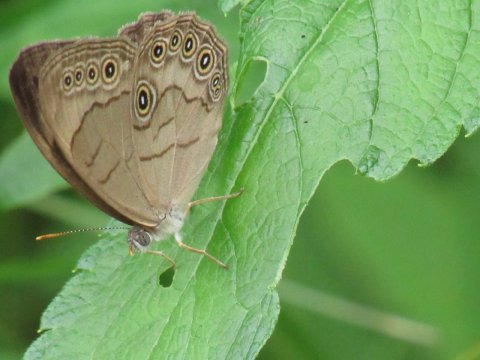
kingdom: Animalia
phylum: Arthropoda
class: Insecta
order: Lepidoptera
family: Nymphalidae
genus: Lethe
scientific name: Lethe eurydice
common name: Appalachian Eyed Brown
